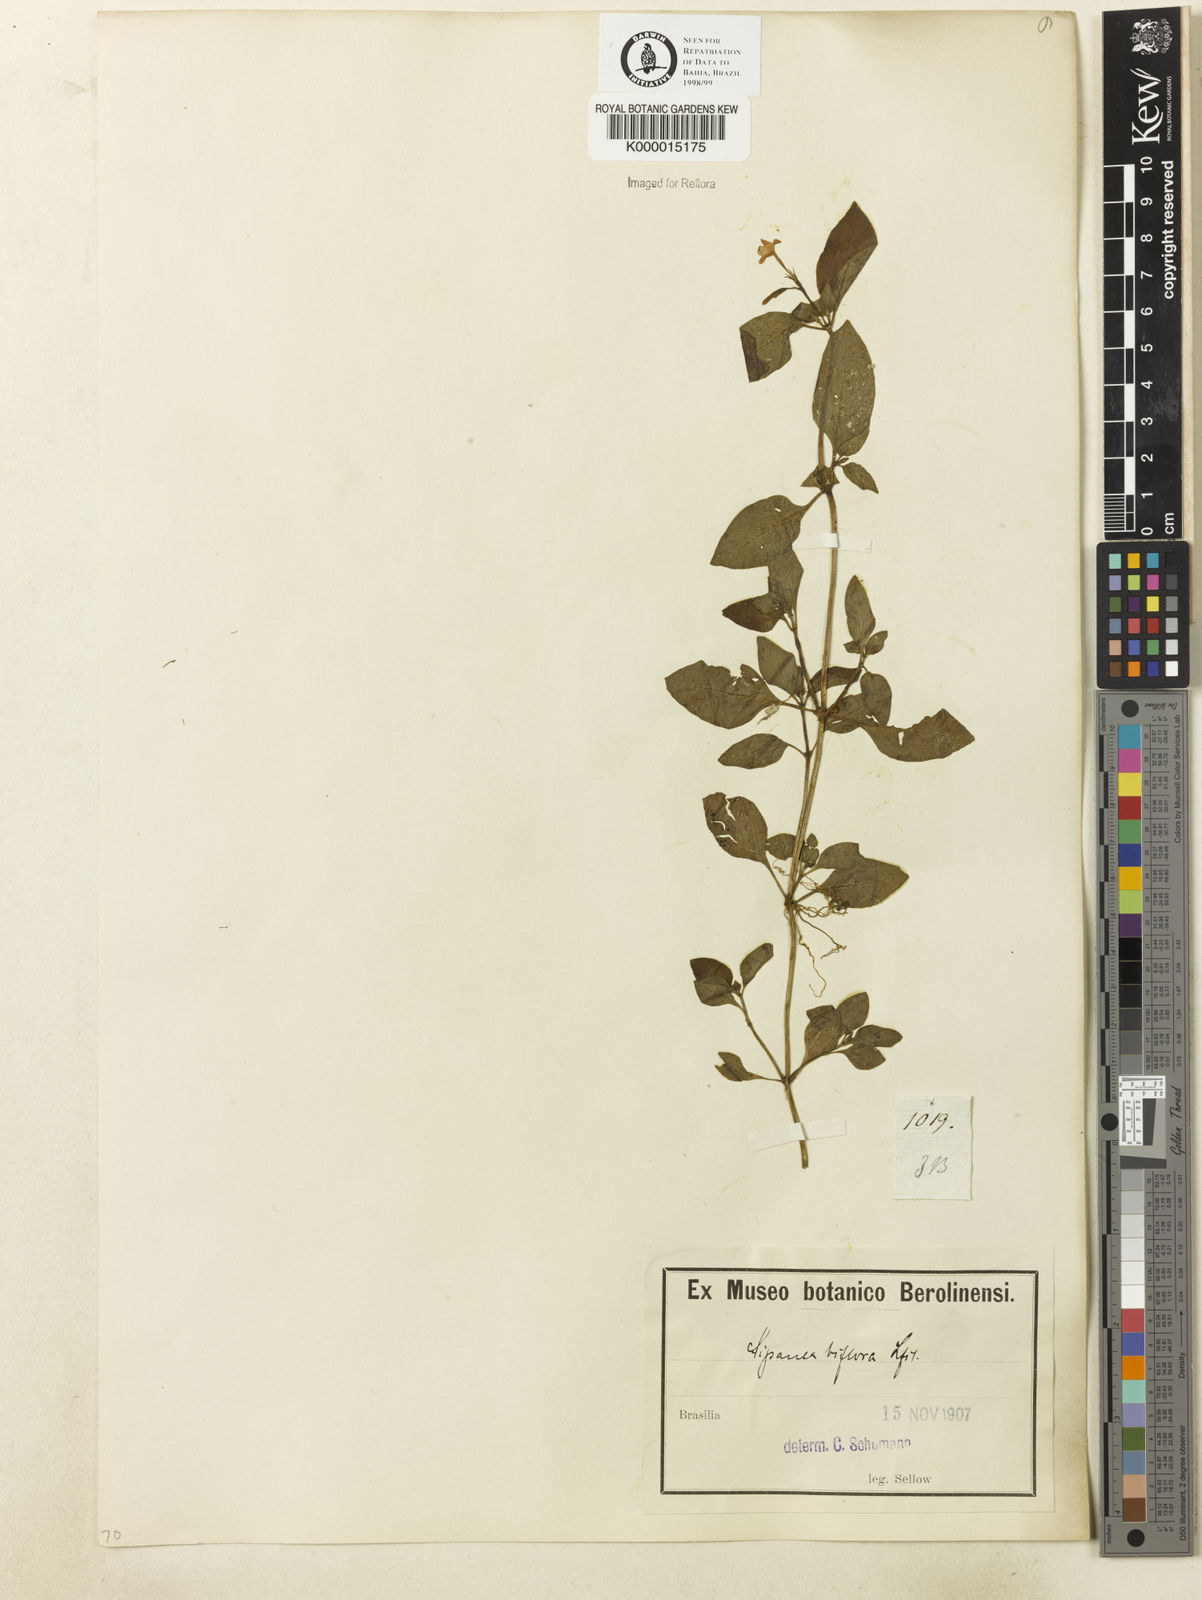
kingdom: Plantae
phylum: Tracheophyta
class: Magnoliopsida
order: Gentianales
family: Rubiaceae
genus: Sipanea
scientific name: Sipanea biflora
